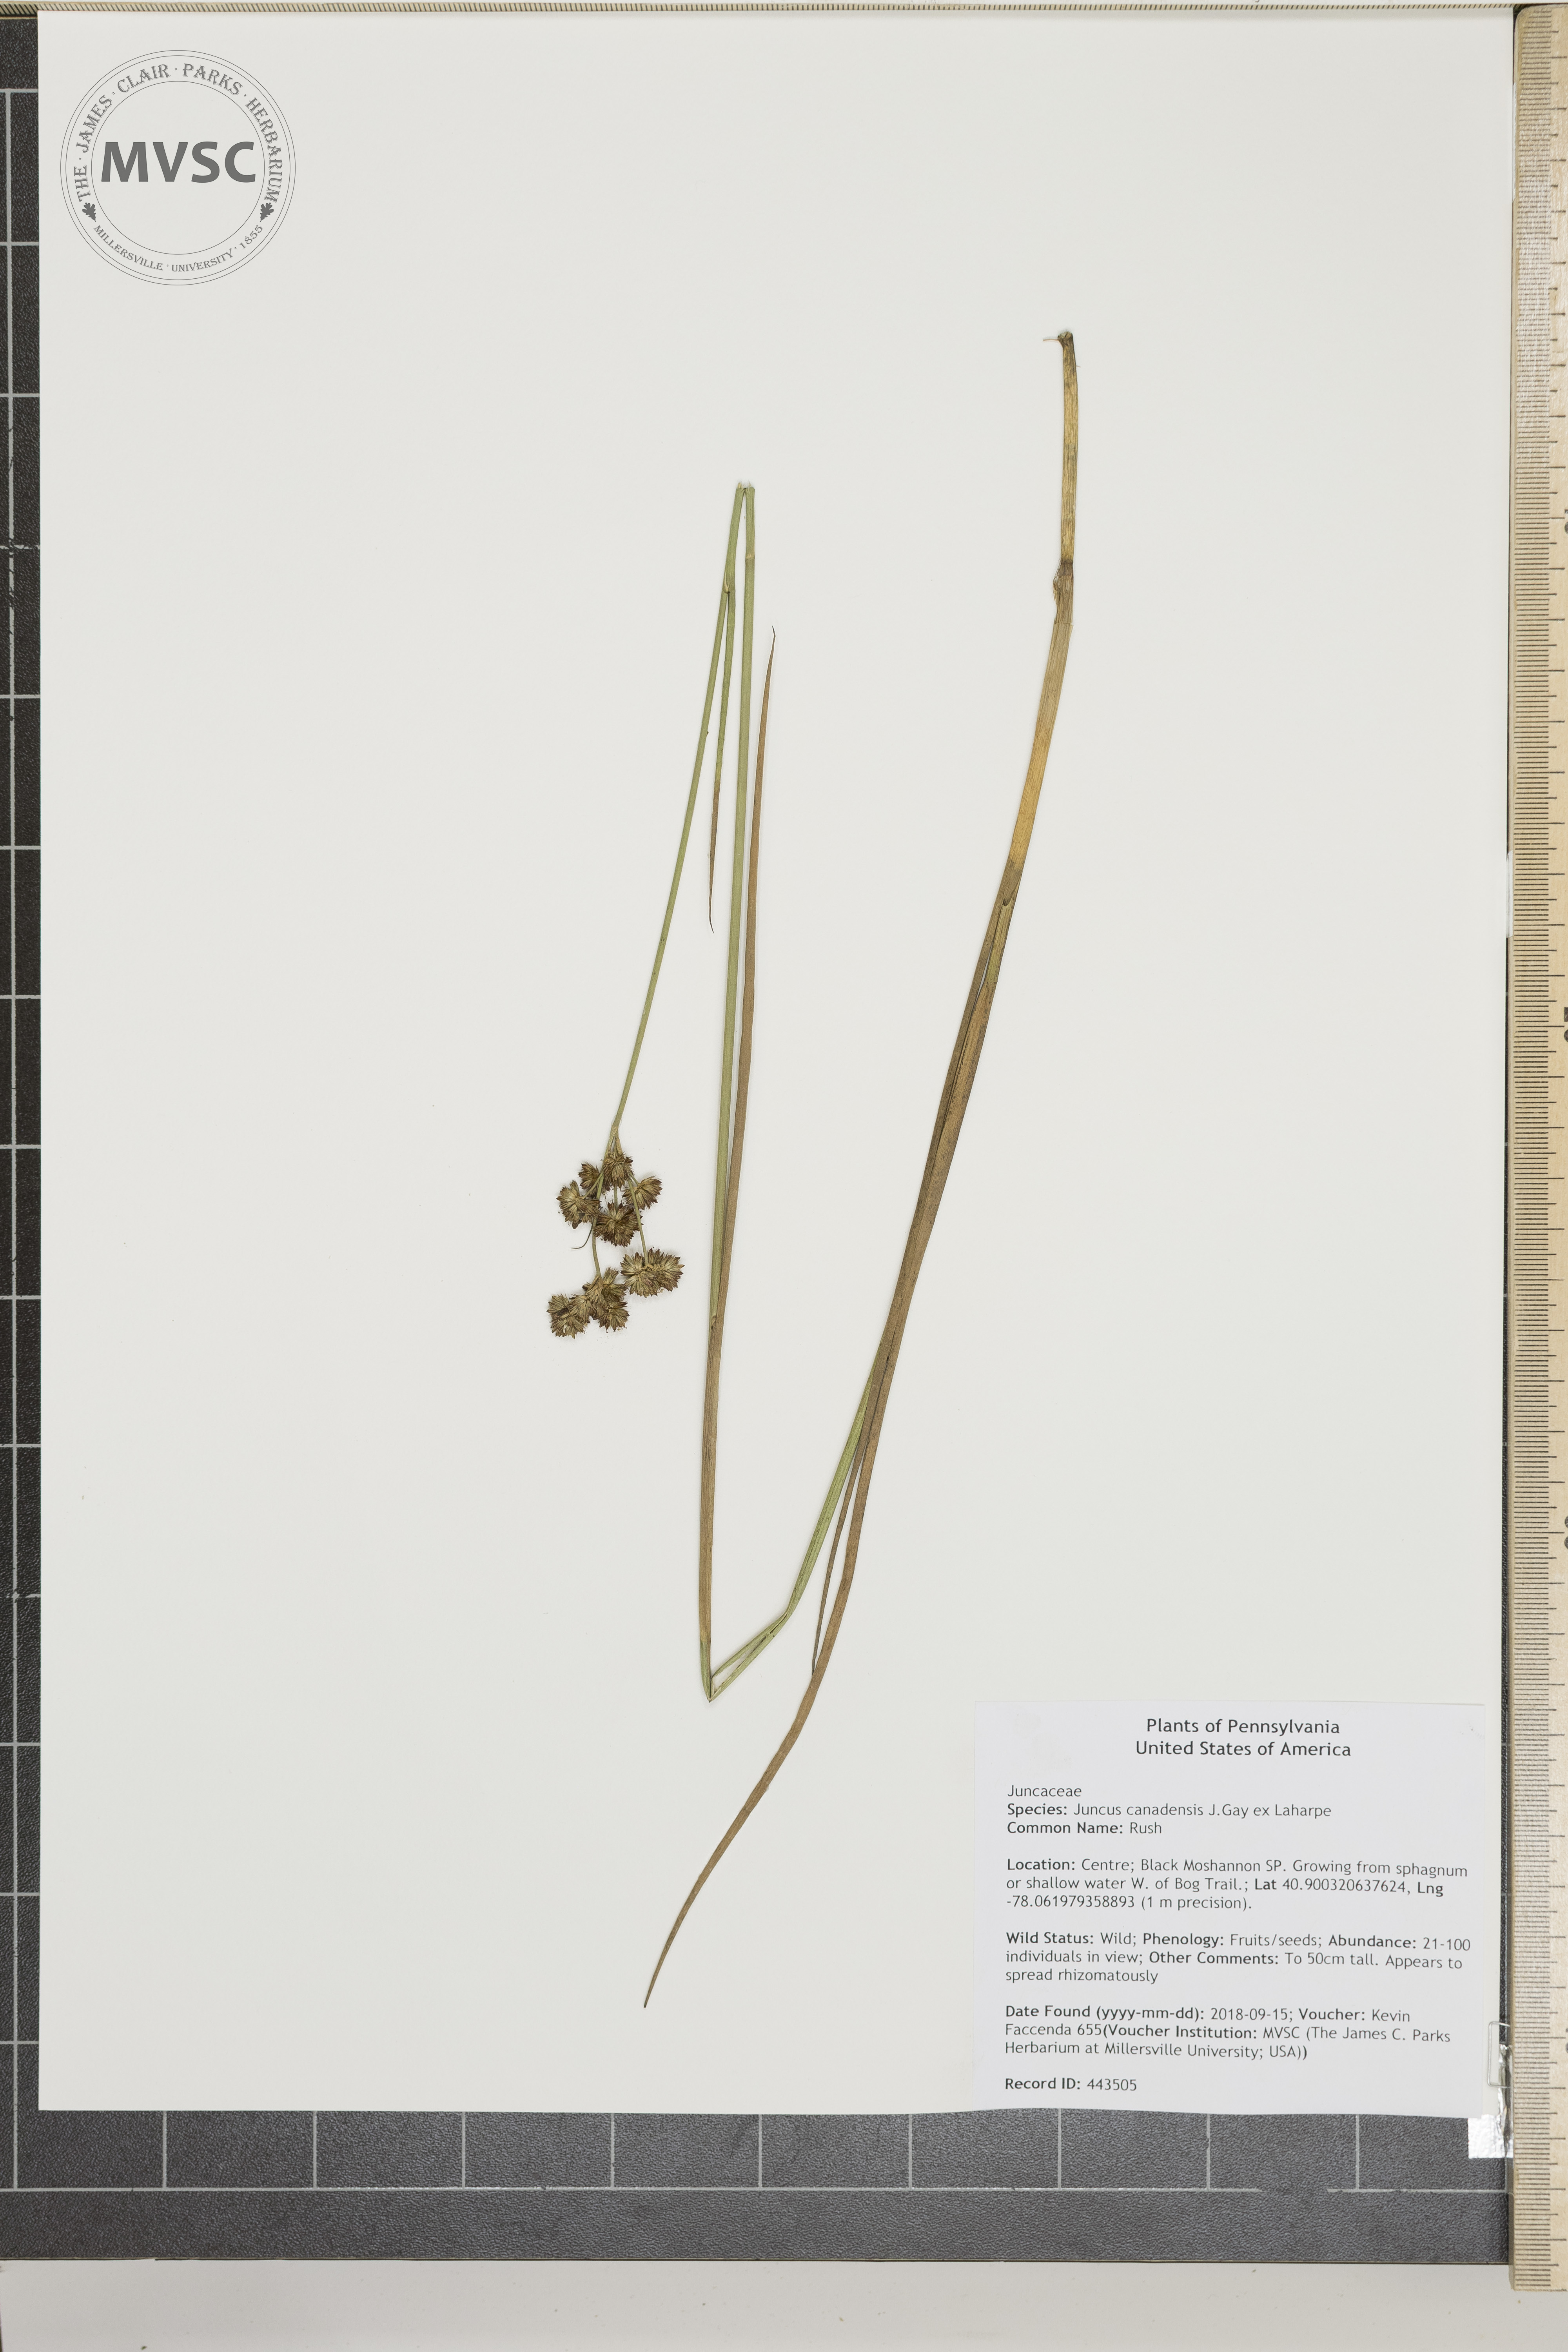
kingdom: Plantae
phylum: Tracheophyta
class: Liliopsida
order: Poales
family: Juncaceae
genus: Juncus
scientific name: Juncus canadensis
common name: Rush
